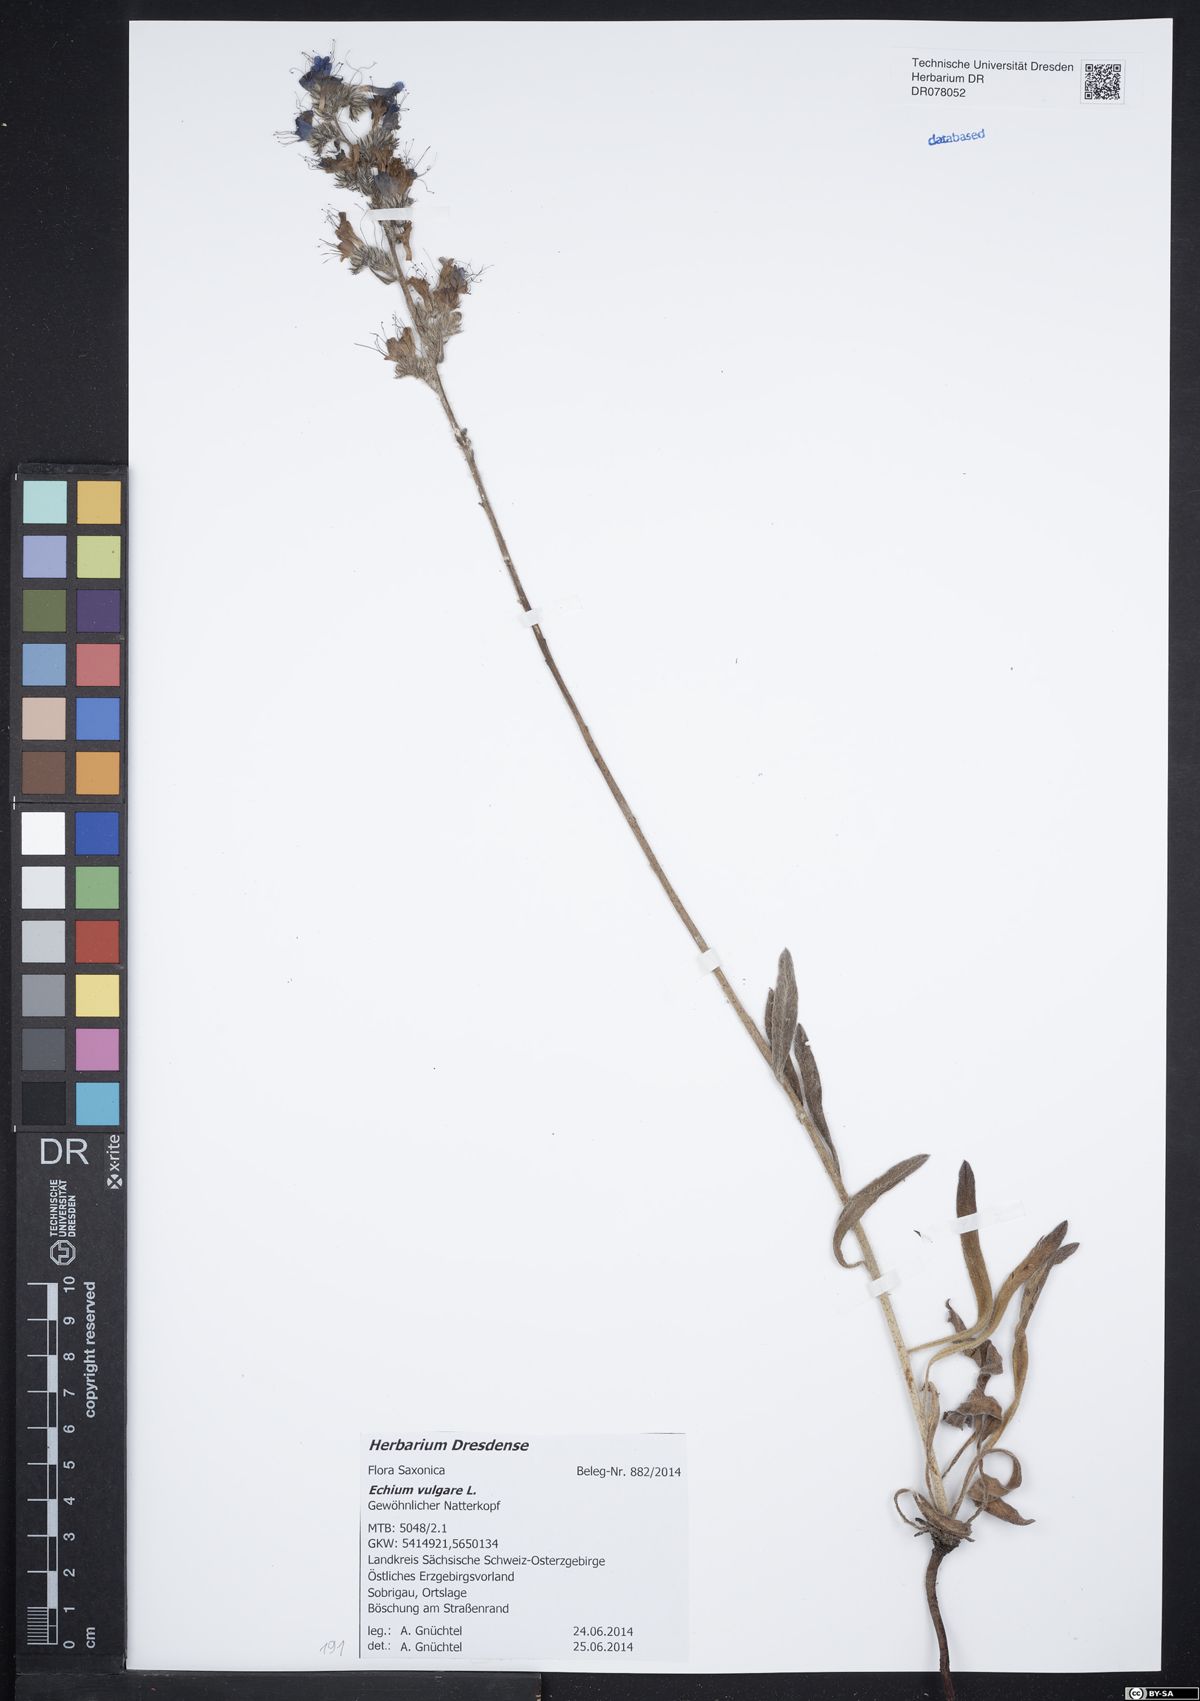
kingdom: Plantae
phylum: Tracheophyta
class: Magnoliopsida
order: Boraginales
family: Boraginaceae
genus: Echium
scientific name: Echium vulgare
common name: Common viper's bugloss
